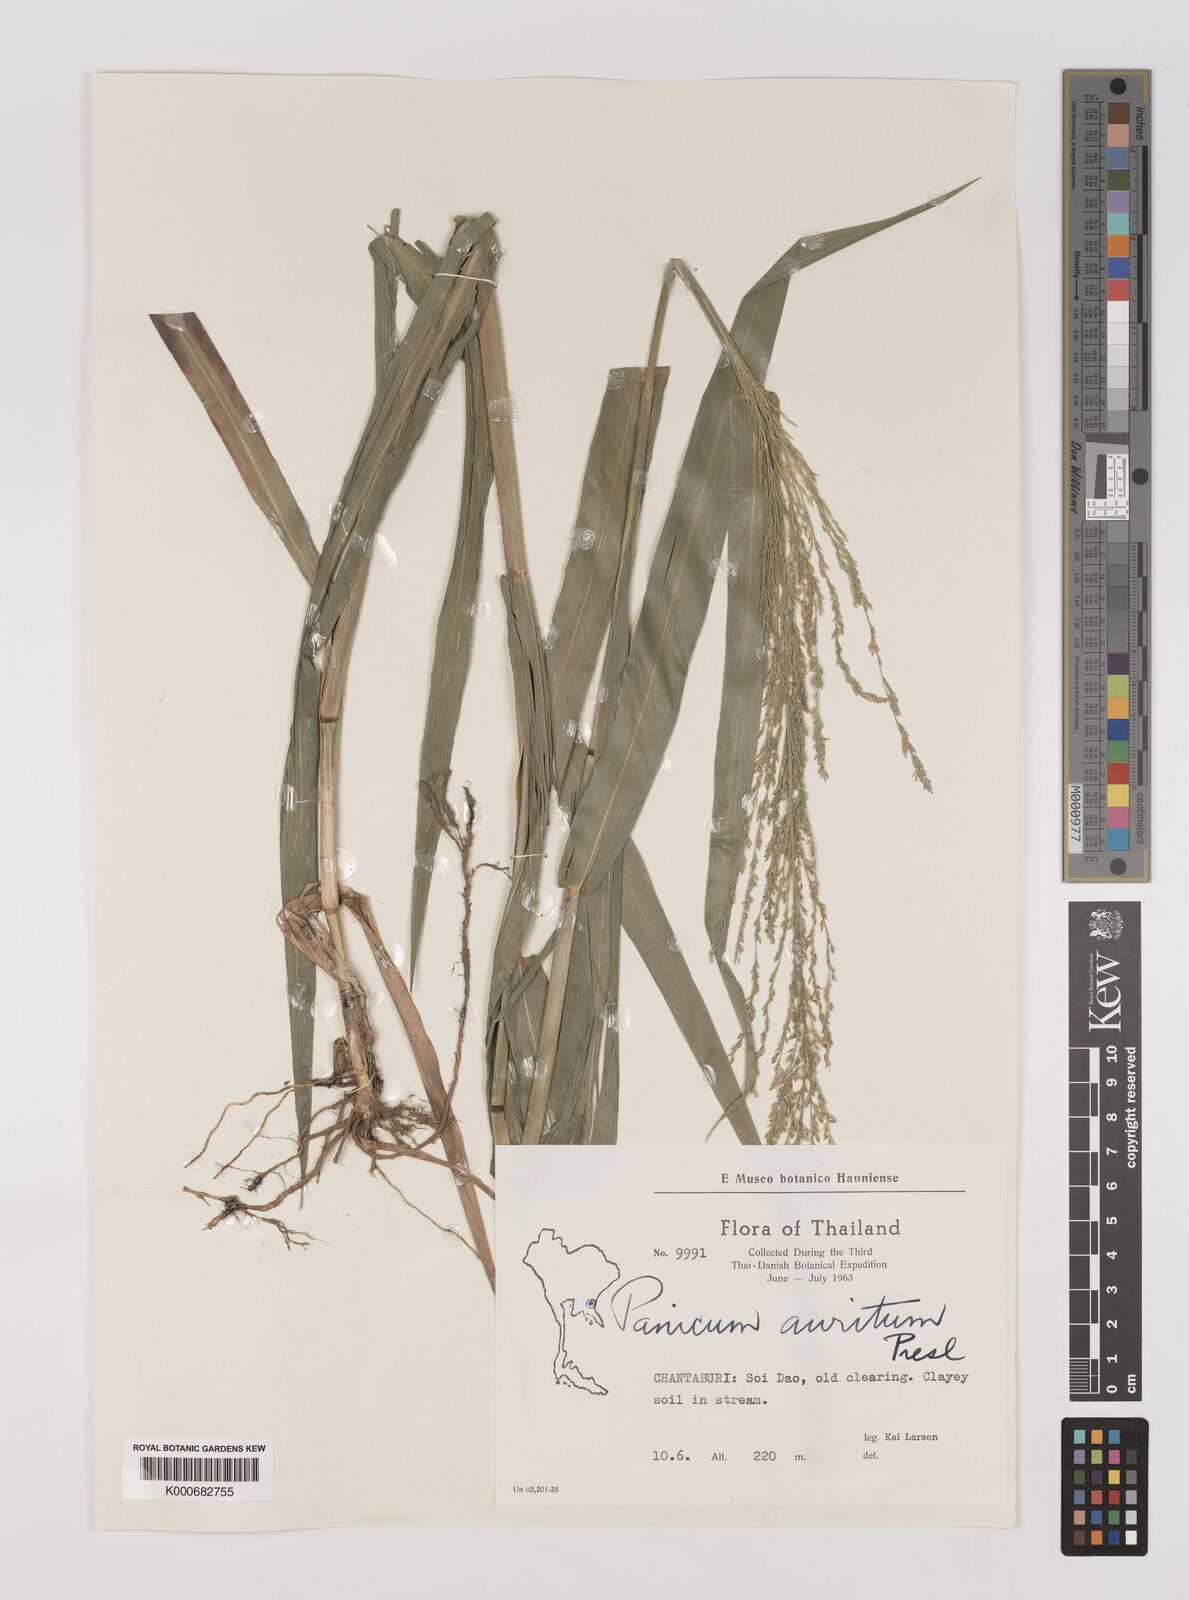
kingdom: Plantae
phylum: Tracheophyta
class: Liliopsida
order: Poales
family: Poaceae
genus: Hymenachne
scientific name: Hymenachne aurita
